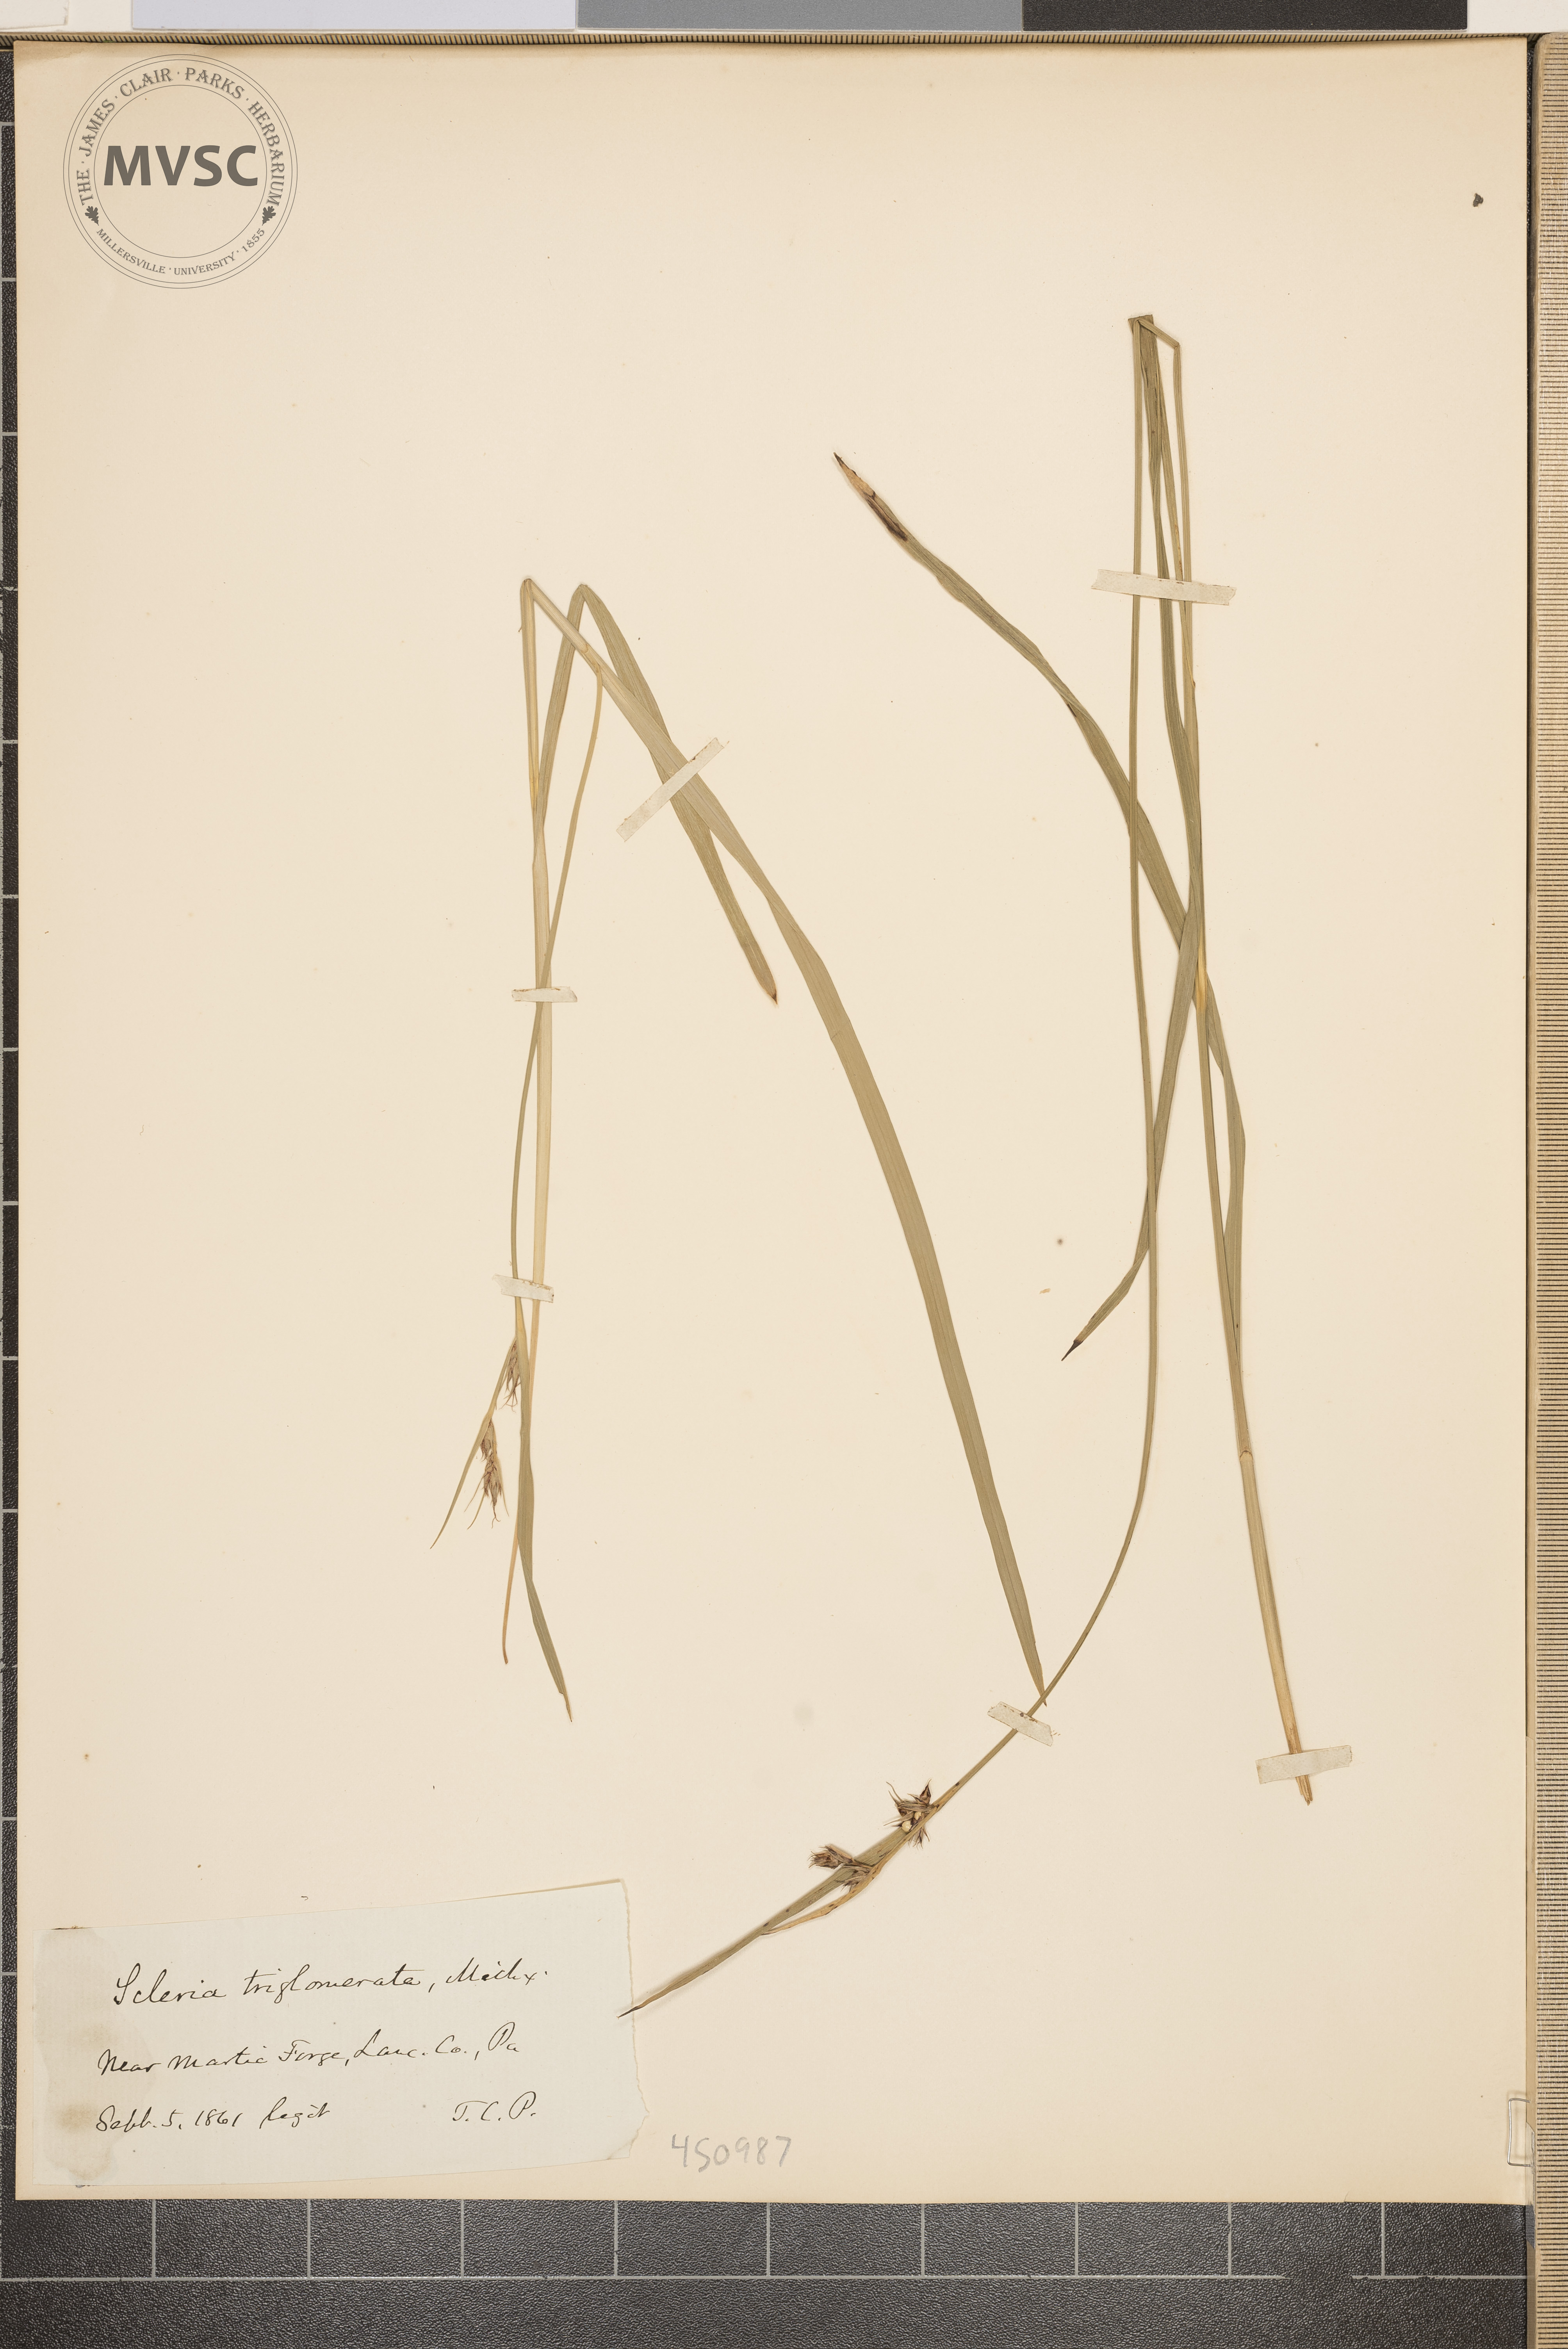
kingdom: Plantae
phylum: Tracheophyta
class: Liliopsida
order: Poales
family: Cyperaceae
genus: Scleria
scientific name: Scleria triglomerata
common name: Whip nutrush
